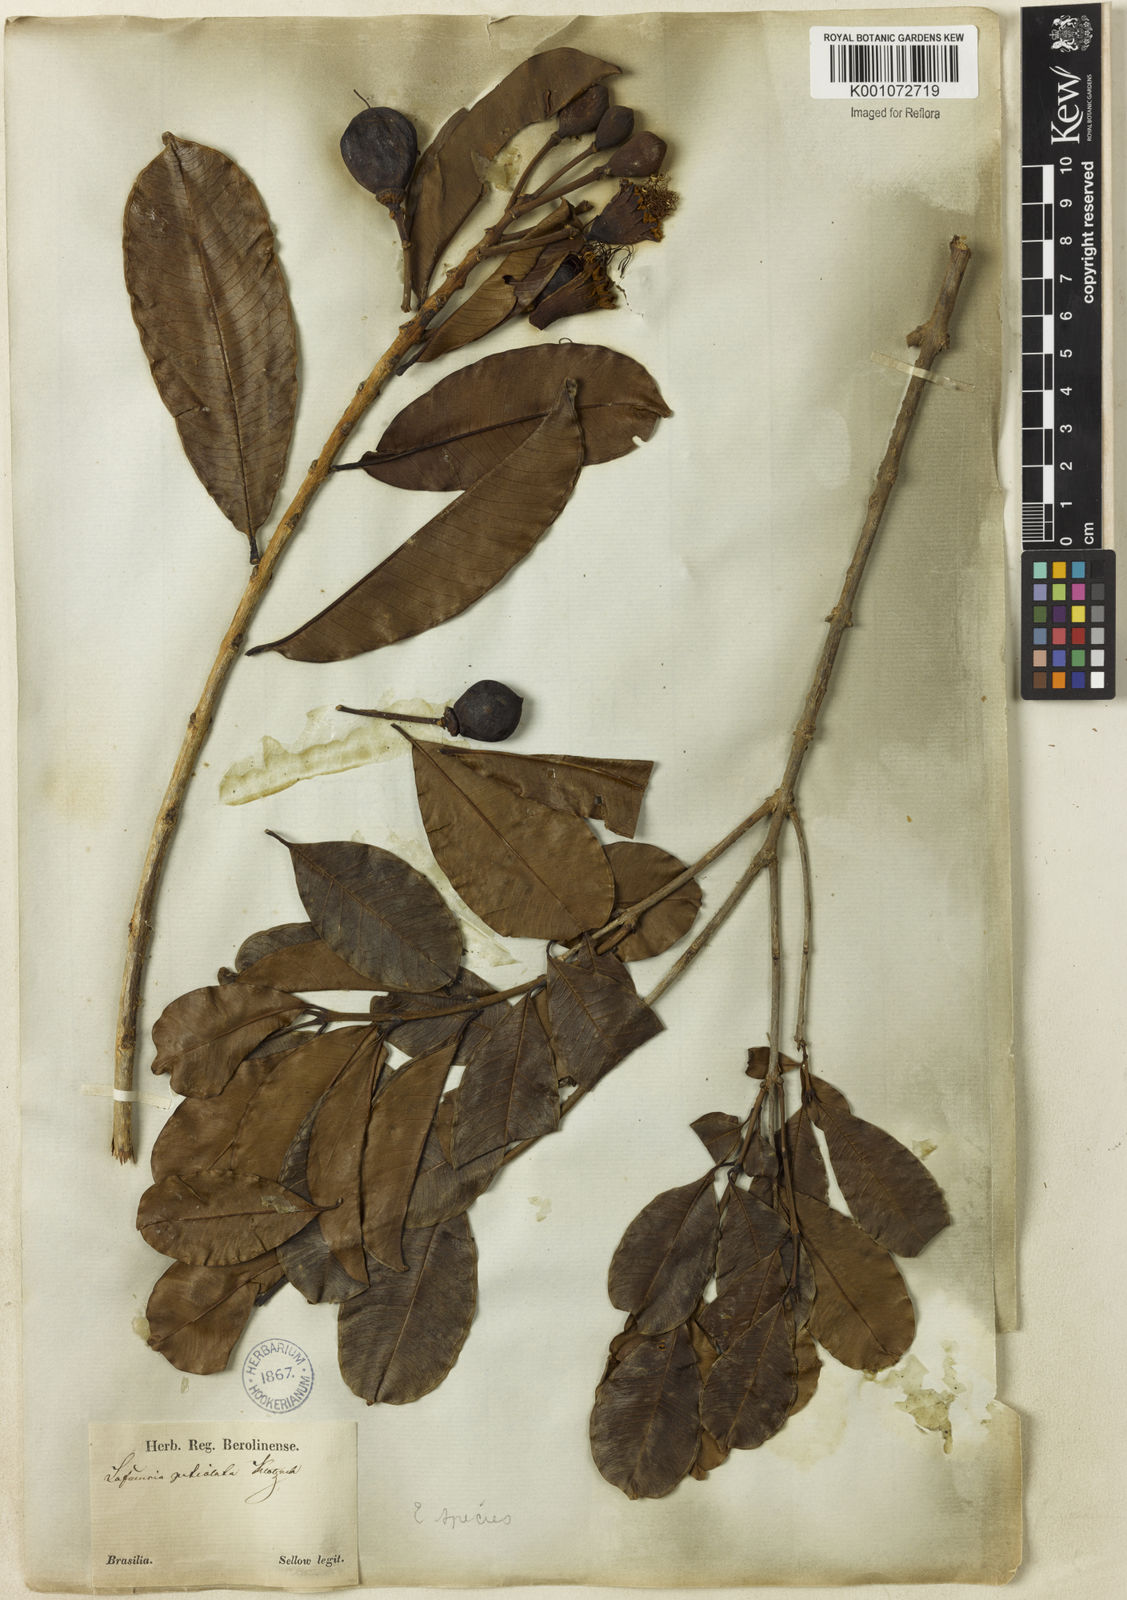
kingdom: Plantae
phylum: Tracheophyta
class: Magnoliopsida
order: Myrtales
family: Lythraceae
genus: Lafoensia
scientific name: Lafoensia pacari
